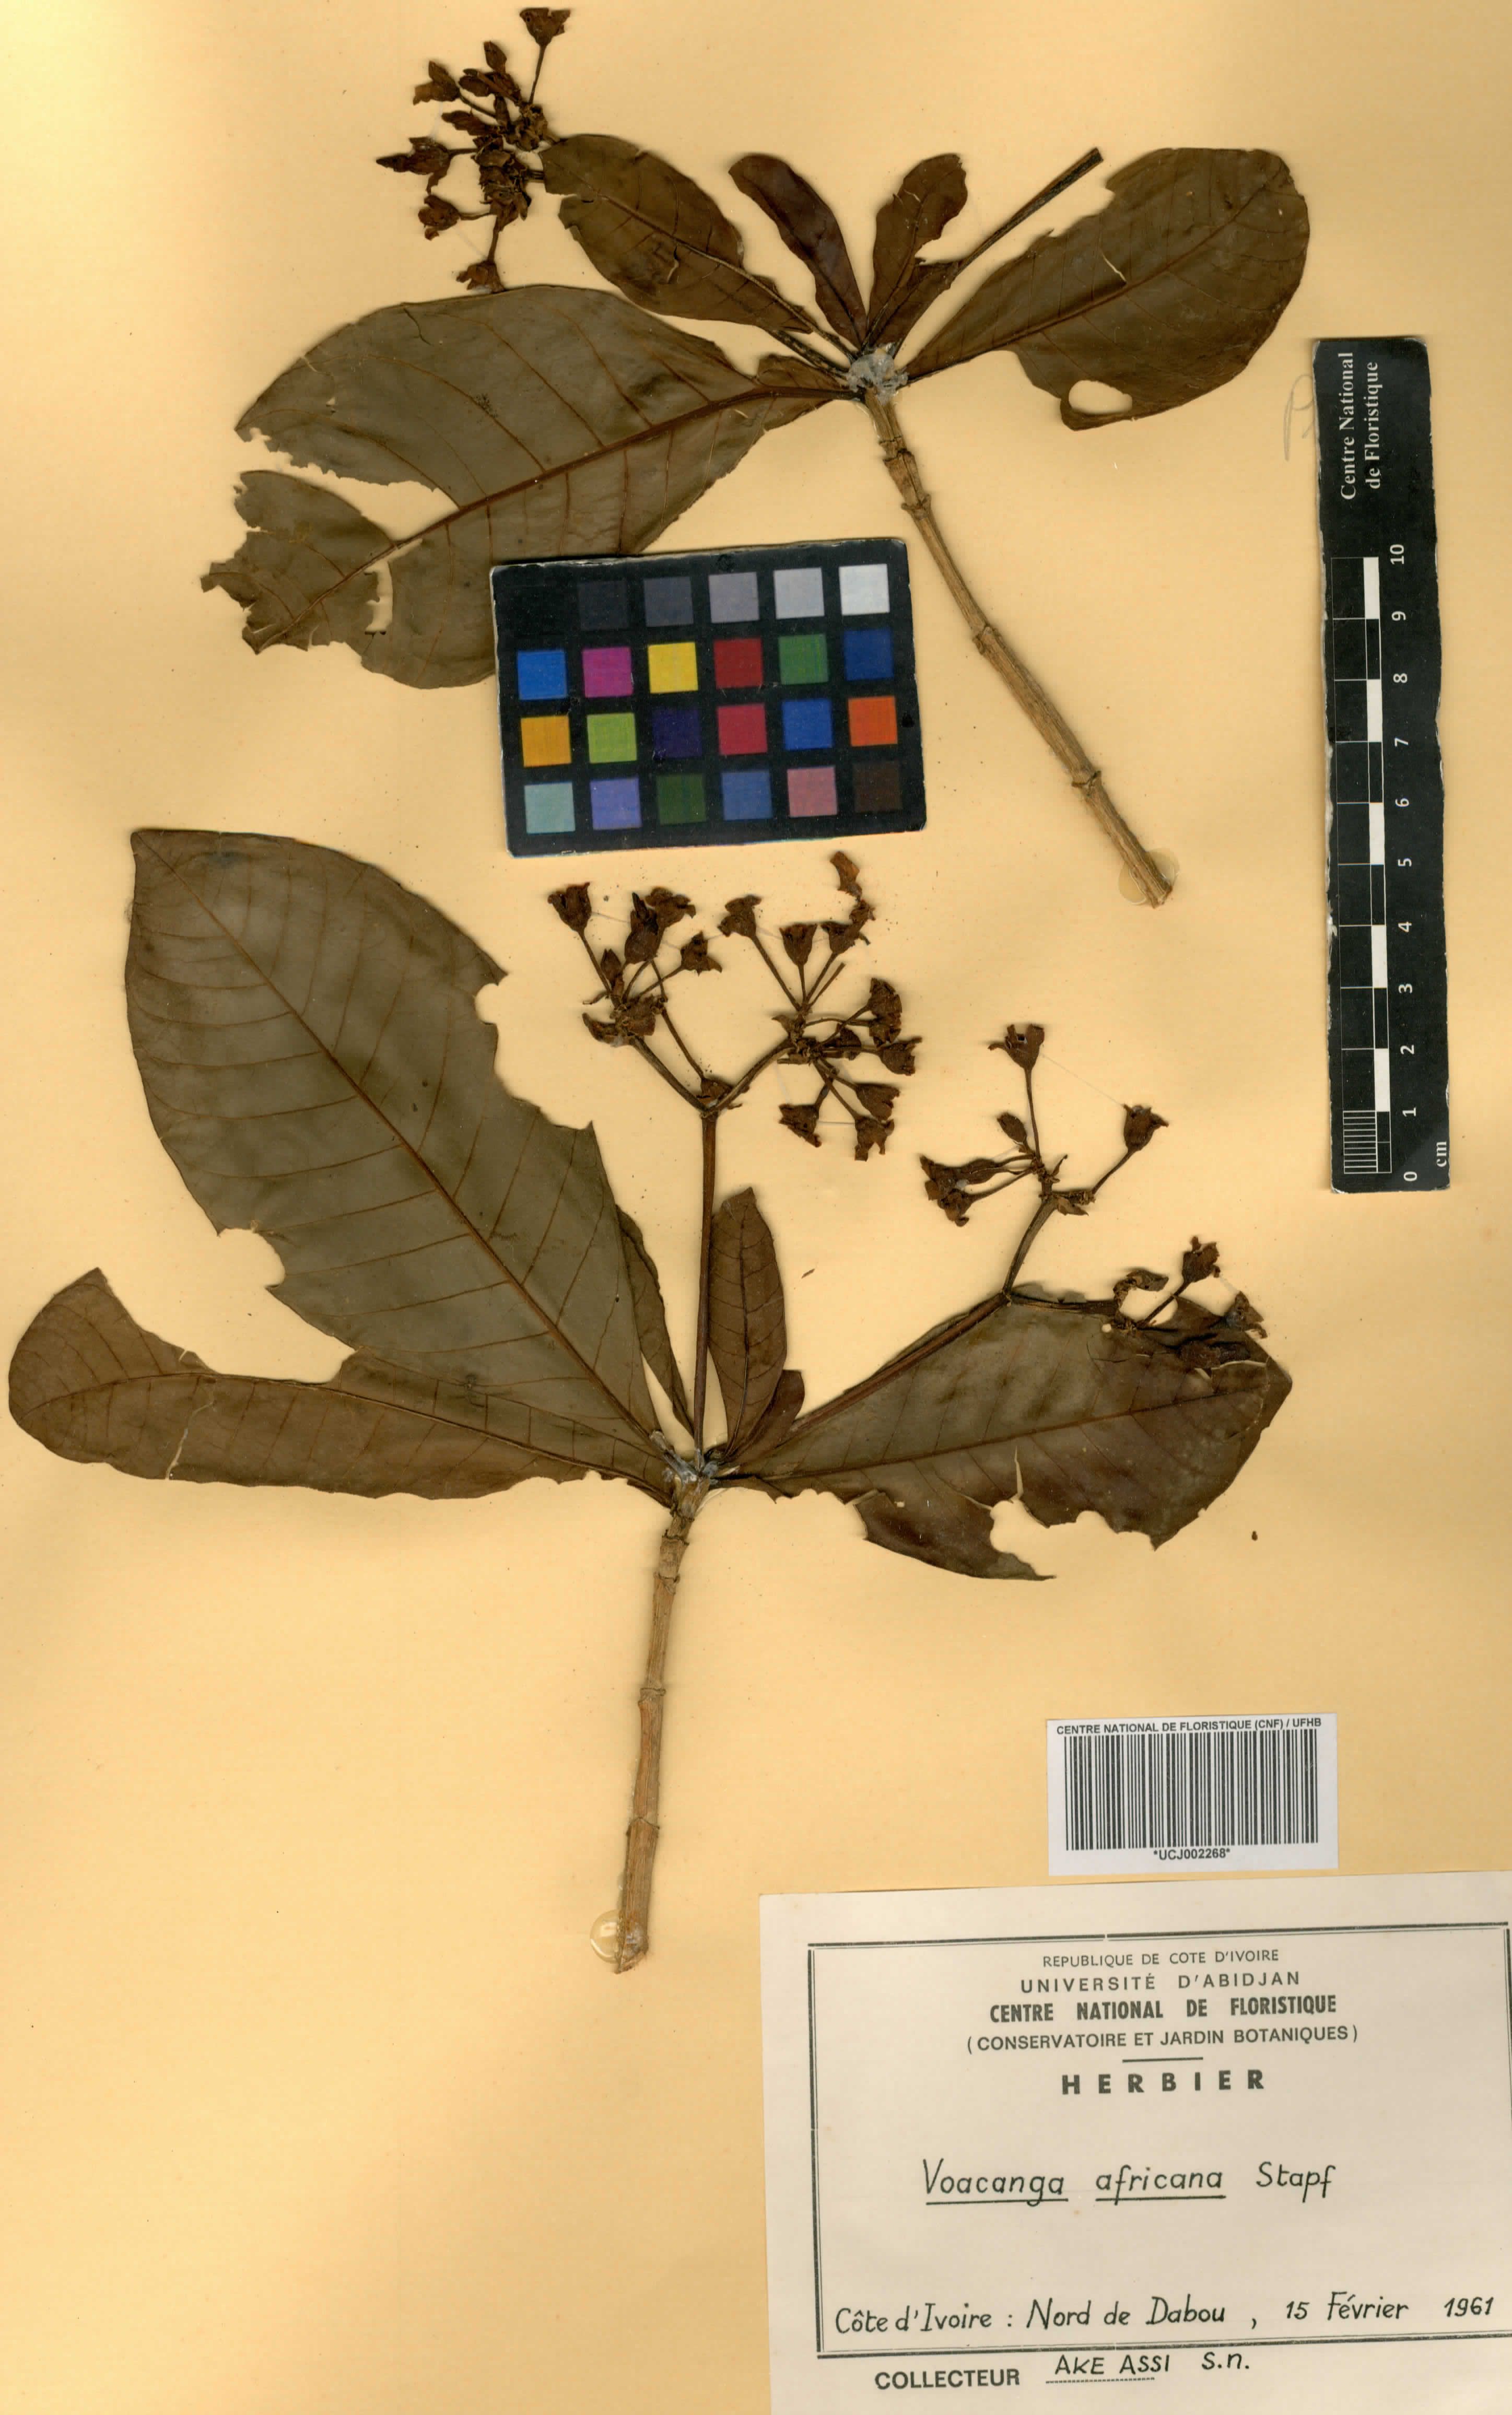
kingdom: Plantae
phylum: Tracheophyta
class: Magnoliopsida
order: Gentianales
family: Apocynaceae
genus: Voacanga
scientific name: Voacanga africana
